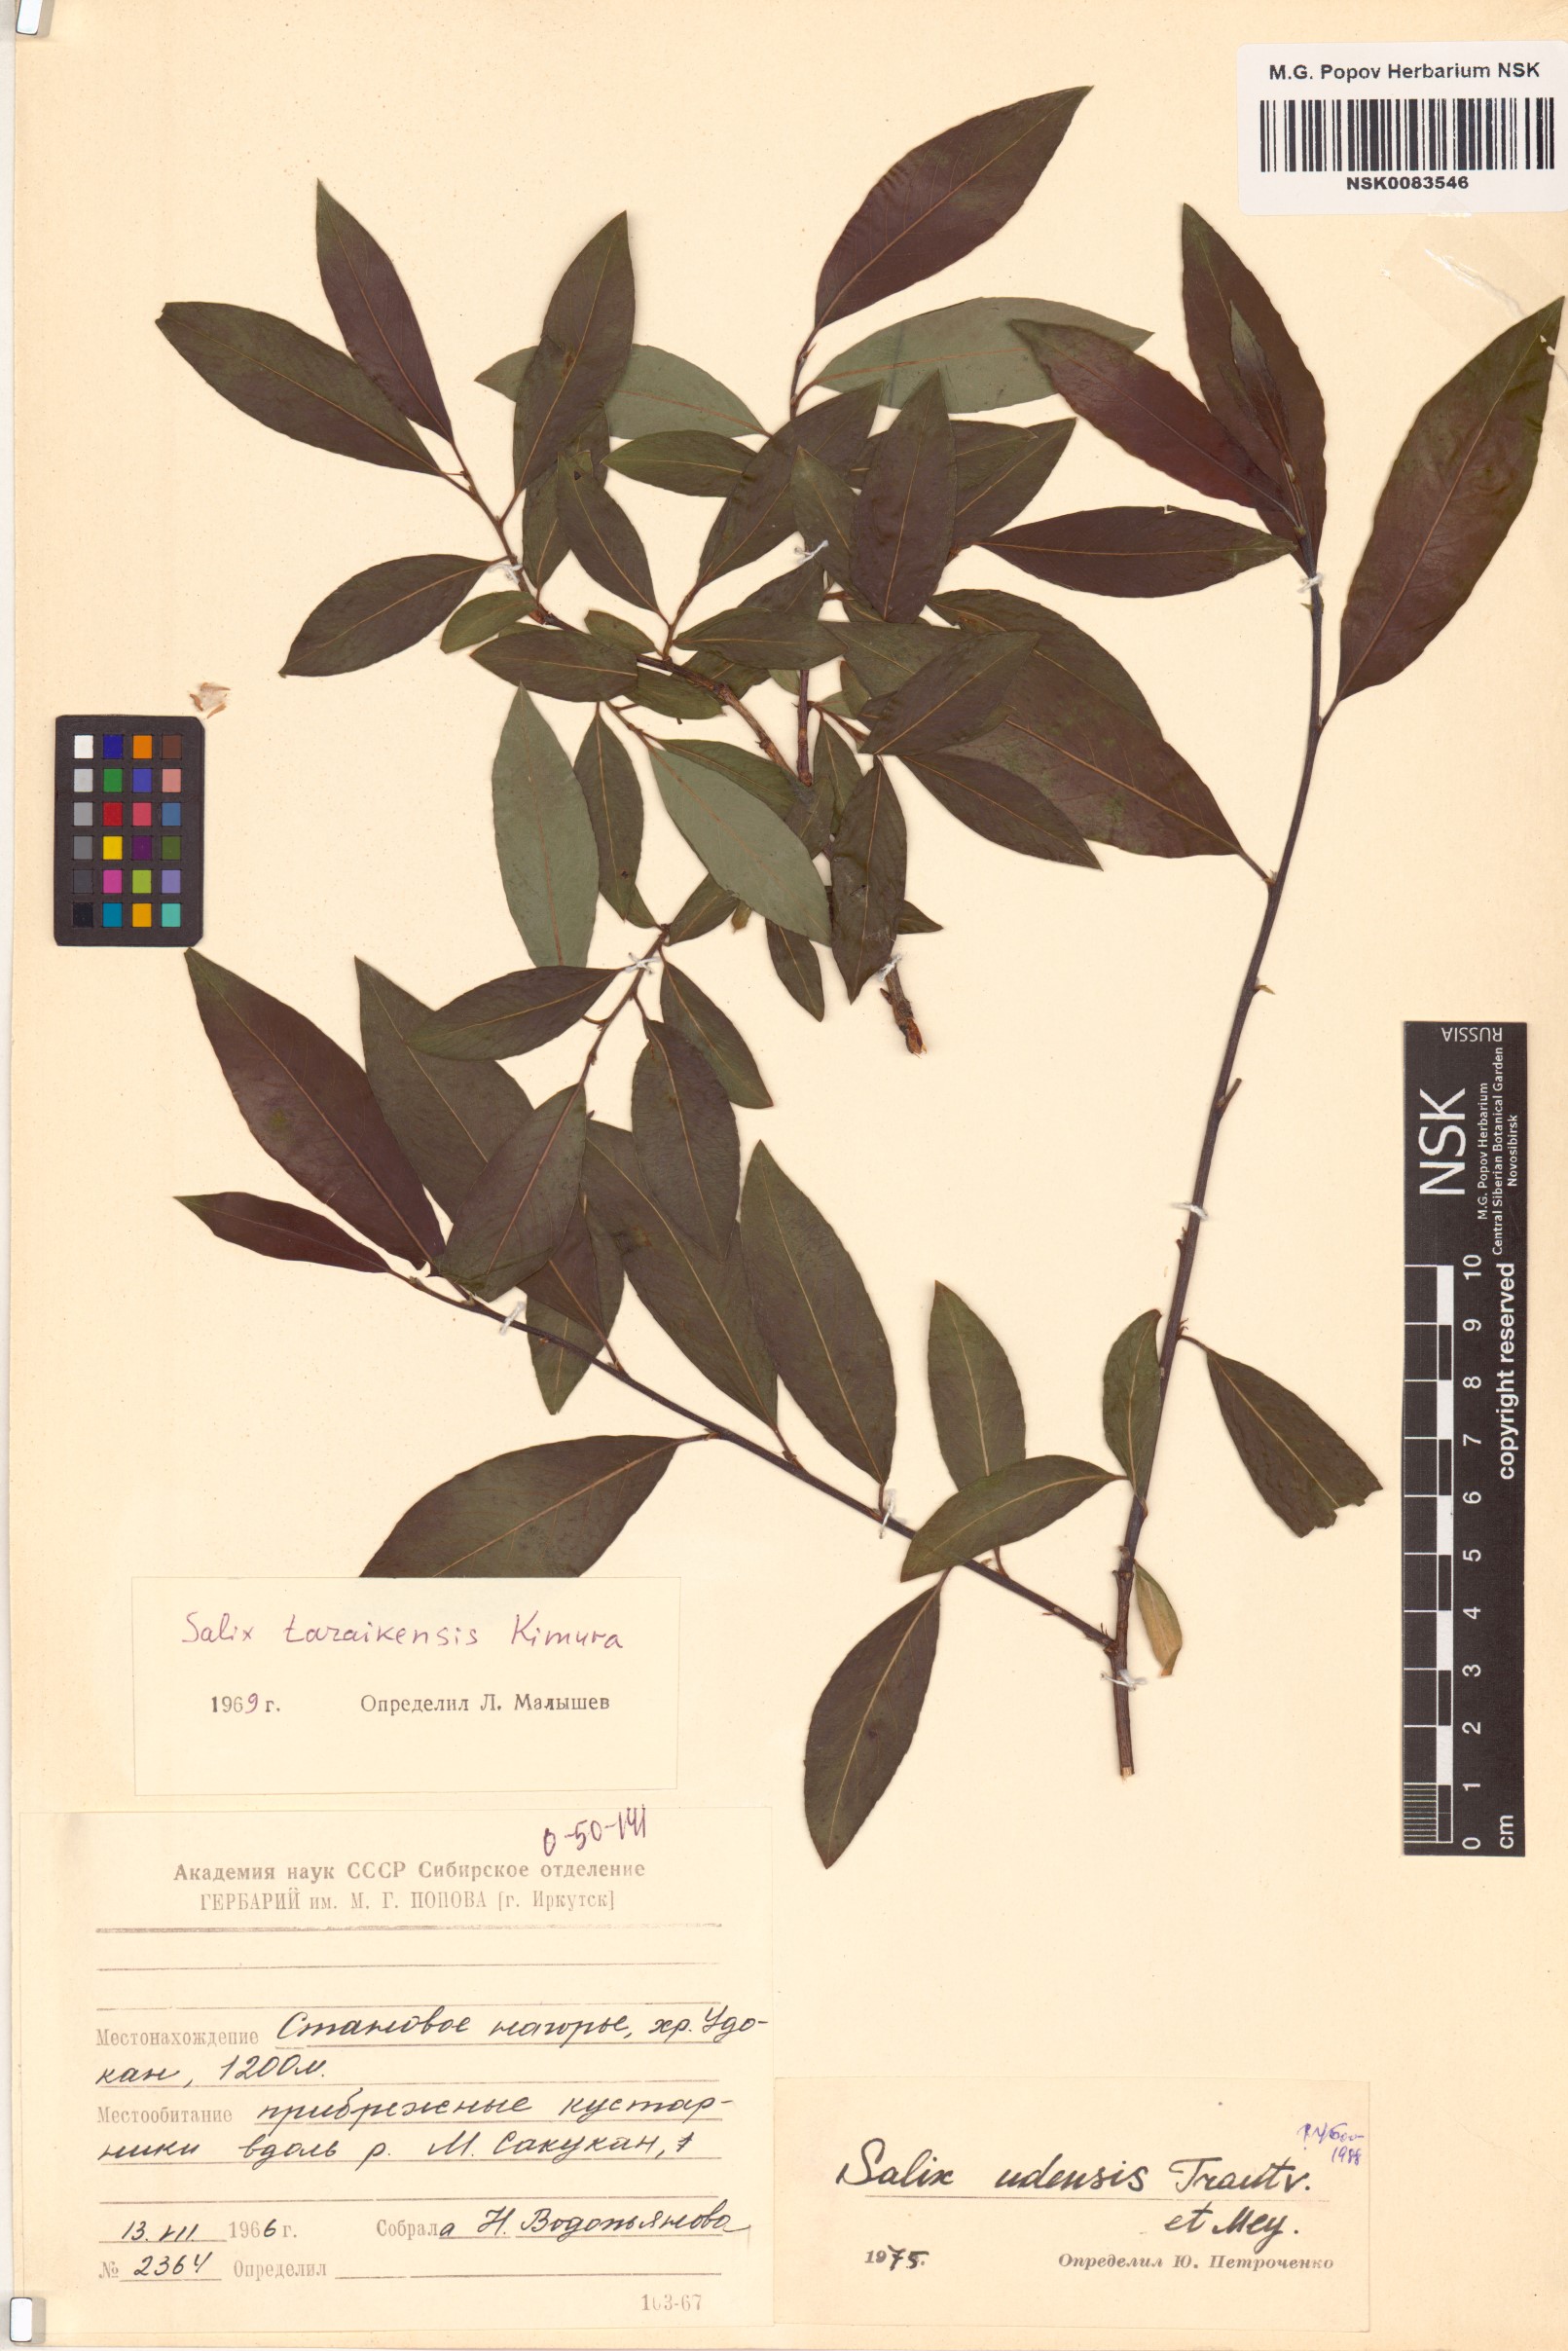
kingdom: Plantae
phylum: Tracheophyta
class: Magnoliopsida
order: Malpighiales
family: Salicaceae
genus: Salix
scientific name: Salix udensis
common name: Sachalin willow
